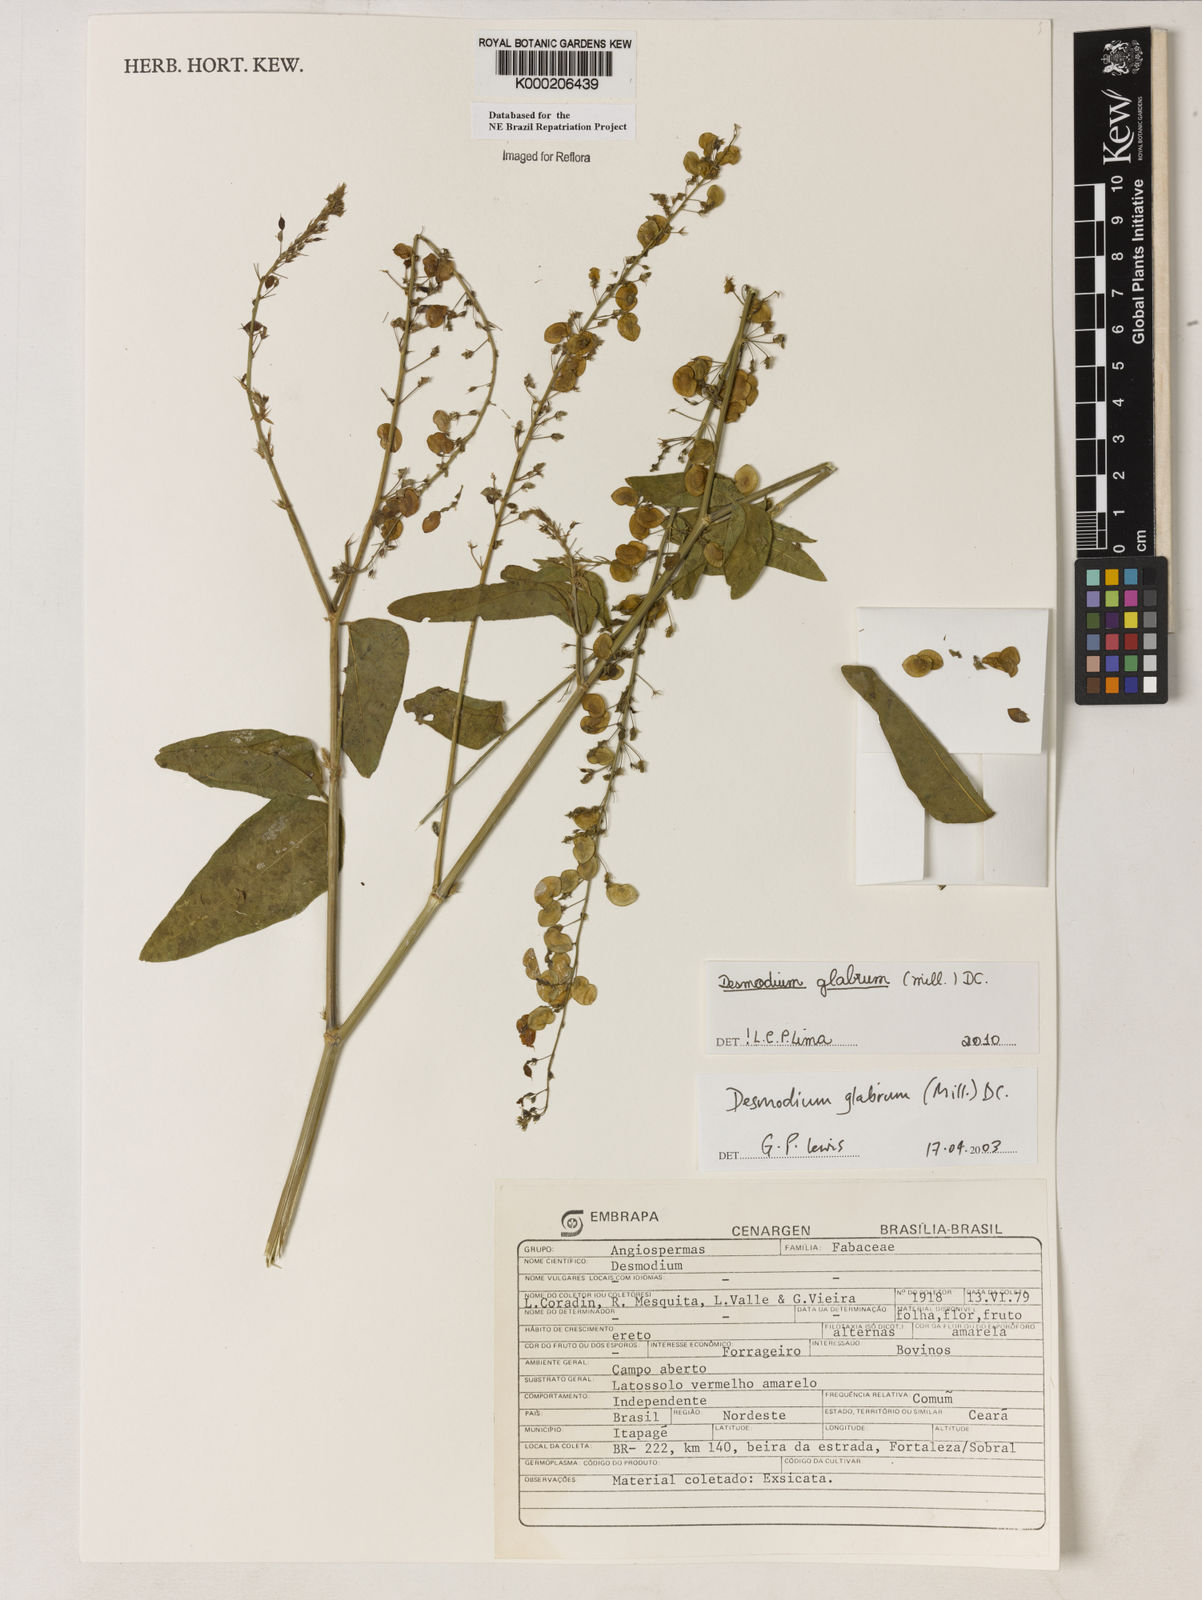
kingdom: Plantae
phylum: Tracheophyta
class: Magnoliopsida
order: Fabales
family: Fabaceae
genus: Desmodium
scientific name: Desmodium glabrum
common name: Zarzabacoa dulce
